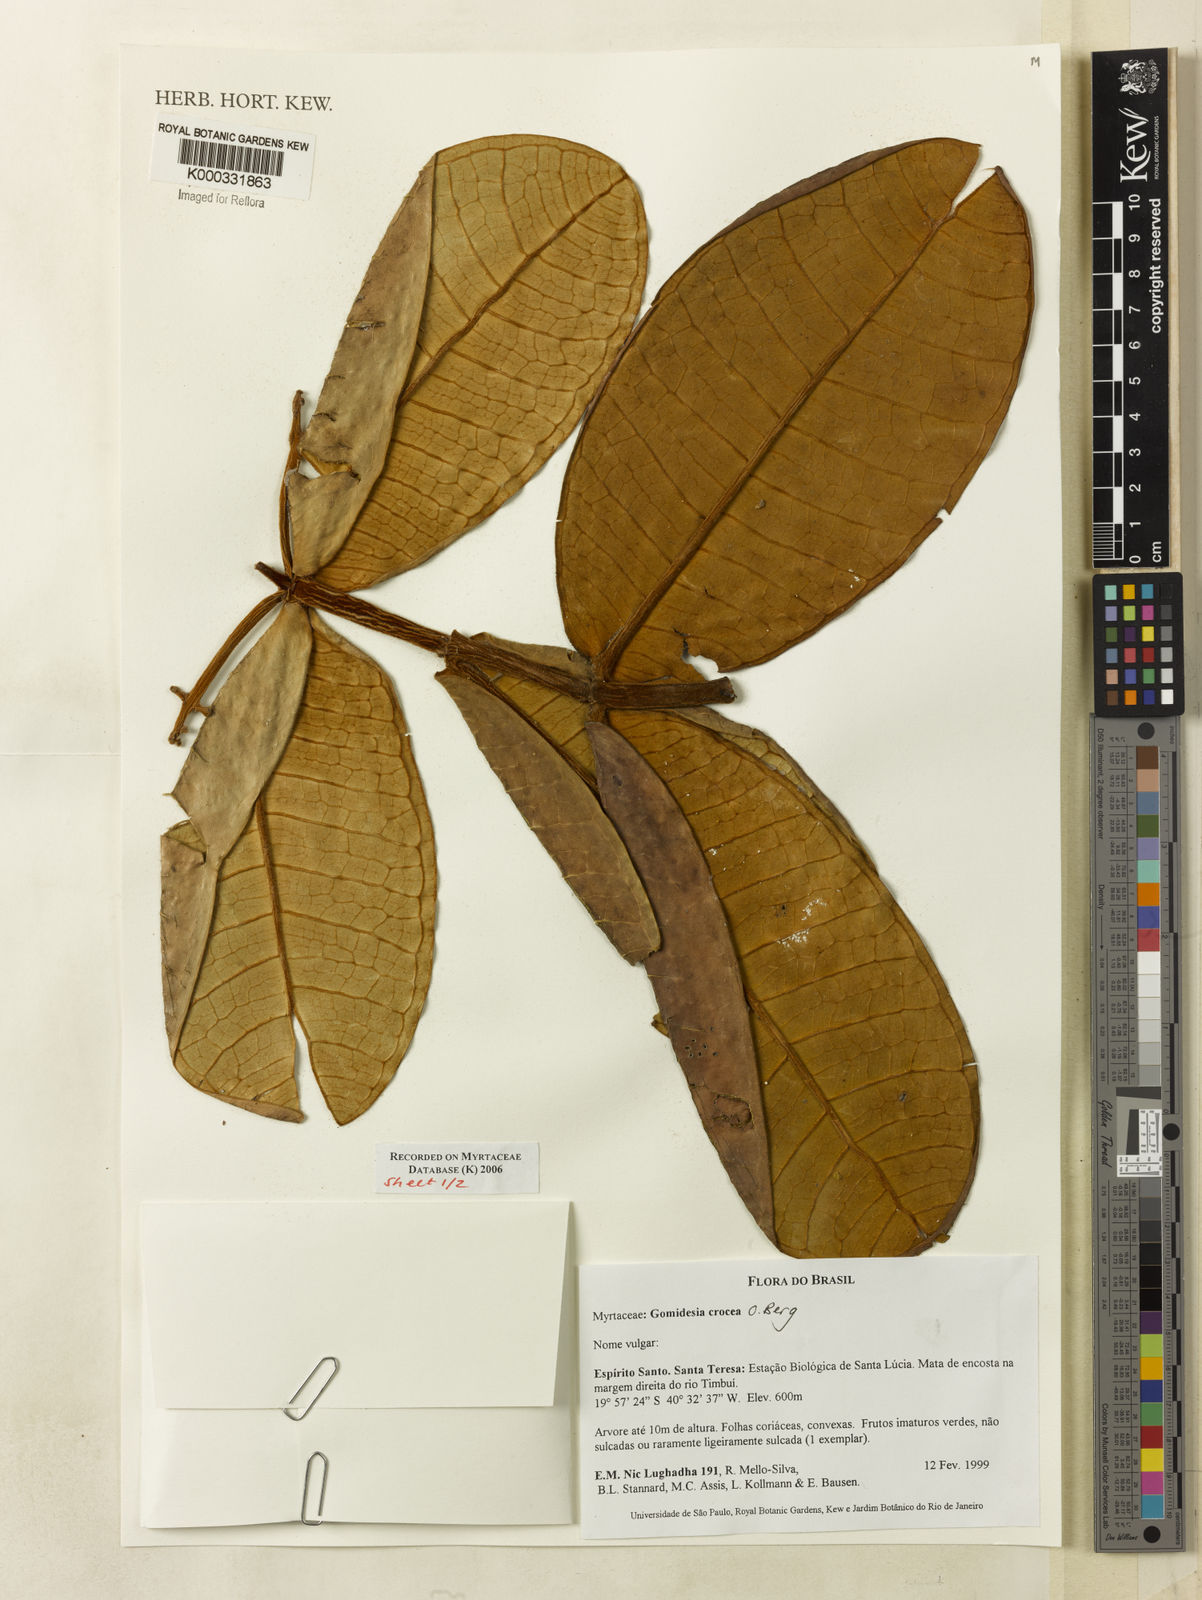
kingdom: Plantae
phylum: Tracheophyta
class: Magnoliopsida
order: Myrtales
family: Myrtaceae
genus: Myrcia
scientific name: Myrcia amplexicaulis
